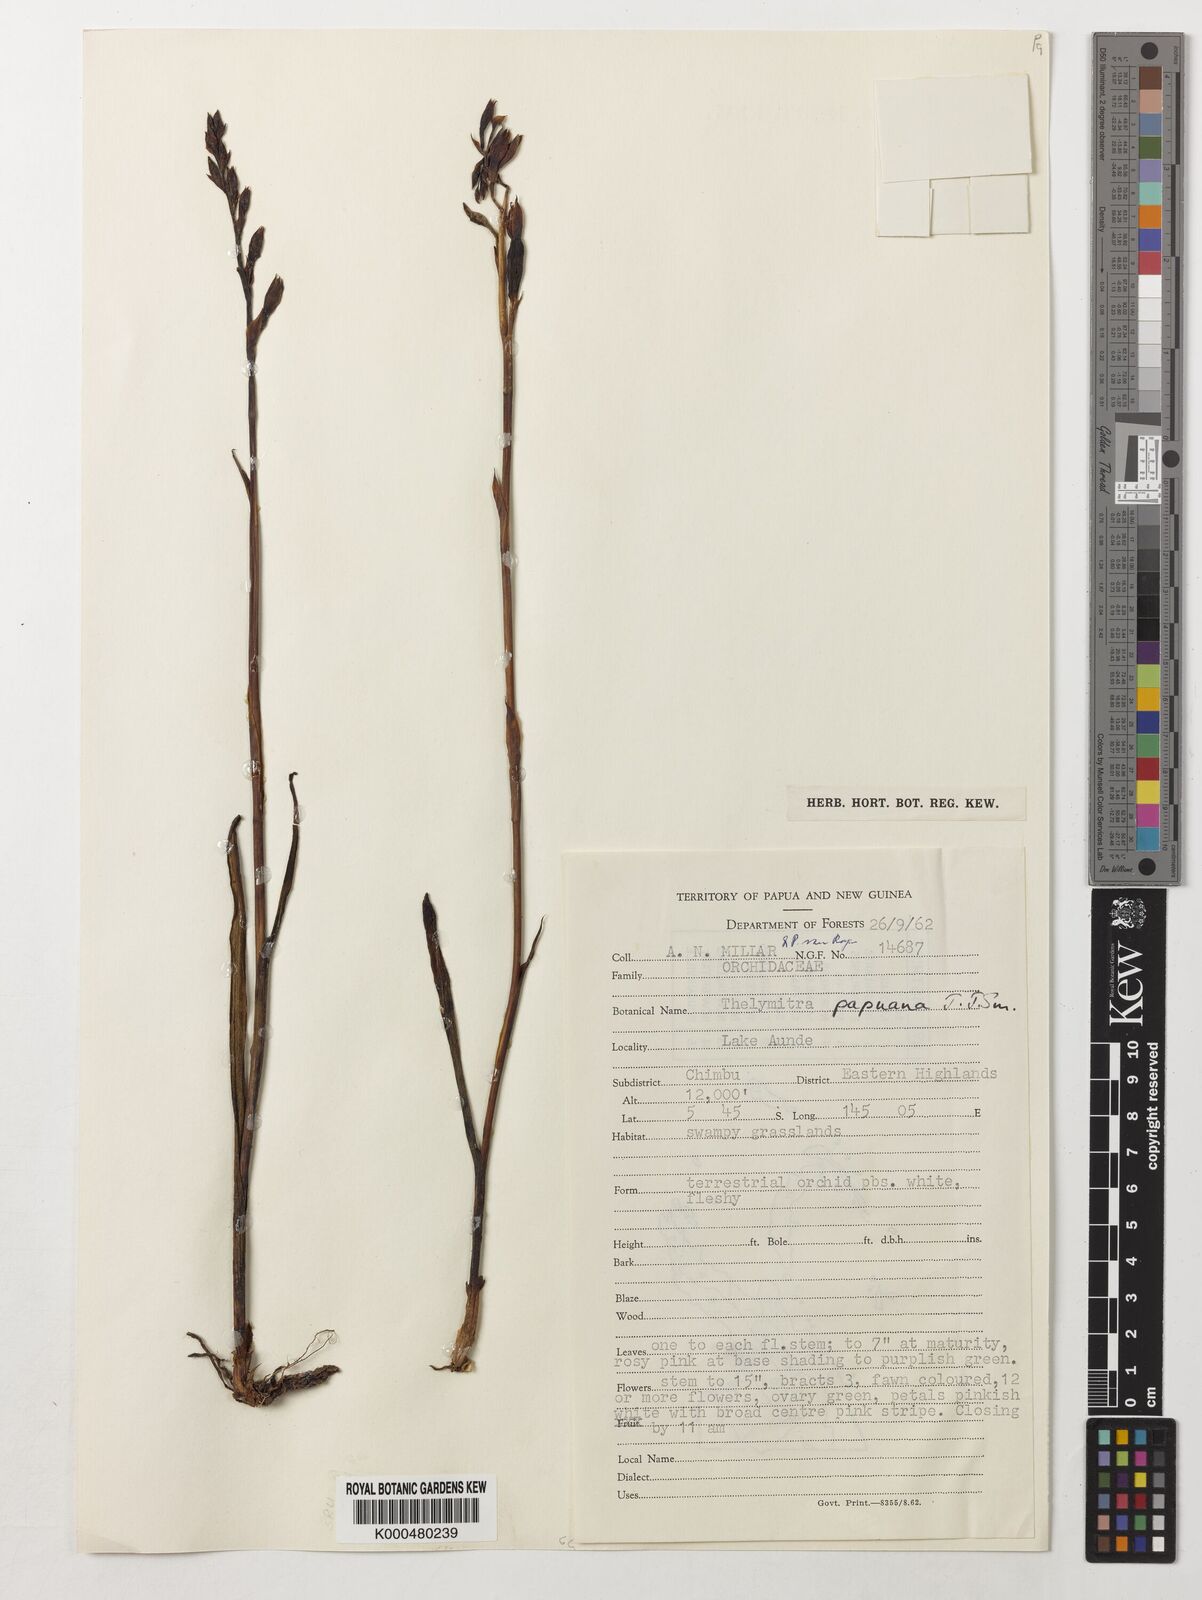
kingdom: Plantae
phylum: Tracheophyta
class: Liliopsida
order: Asparagales
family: Orchidaceae
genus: Thelymitra
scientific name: Thelymitra papuana
